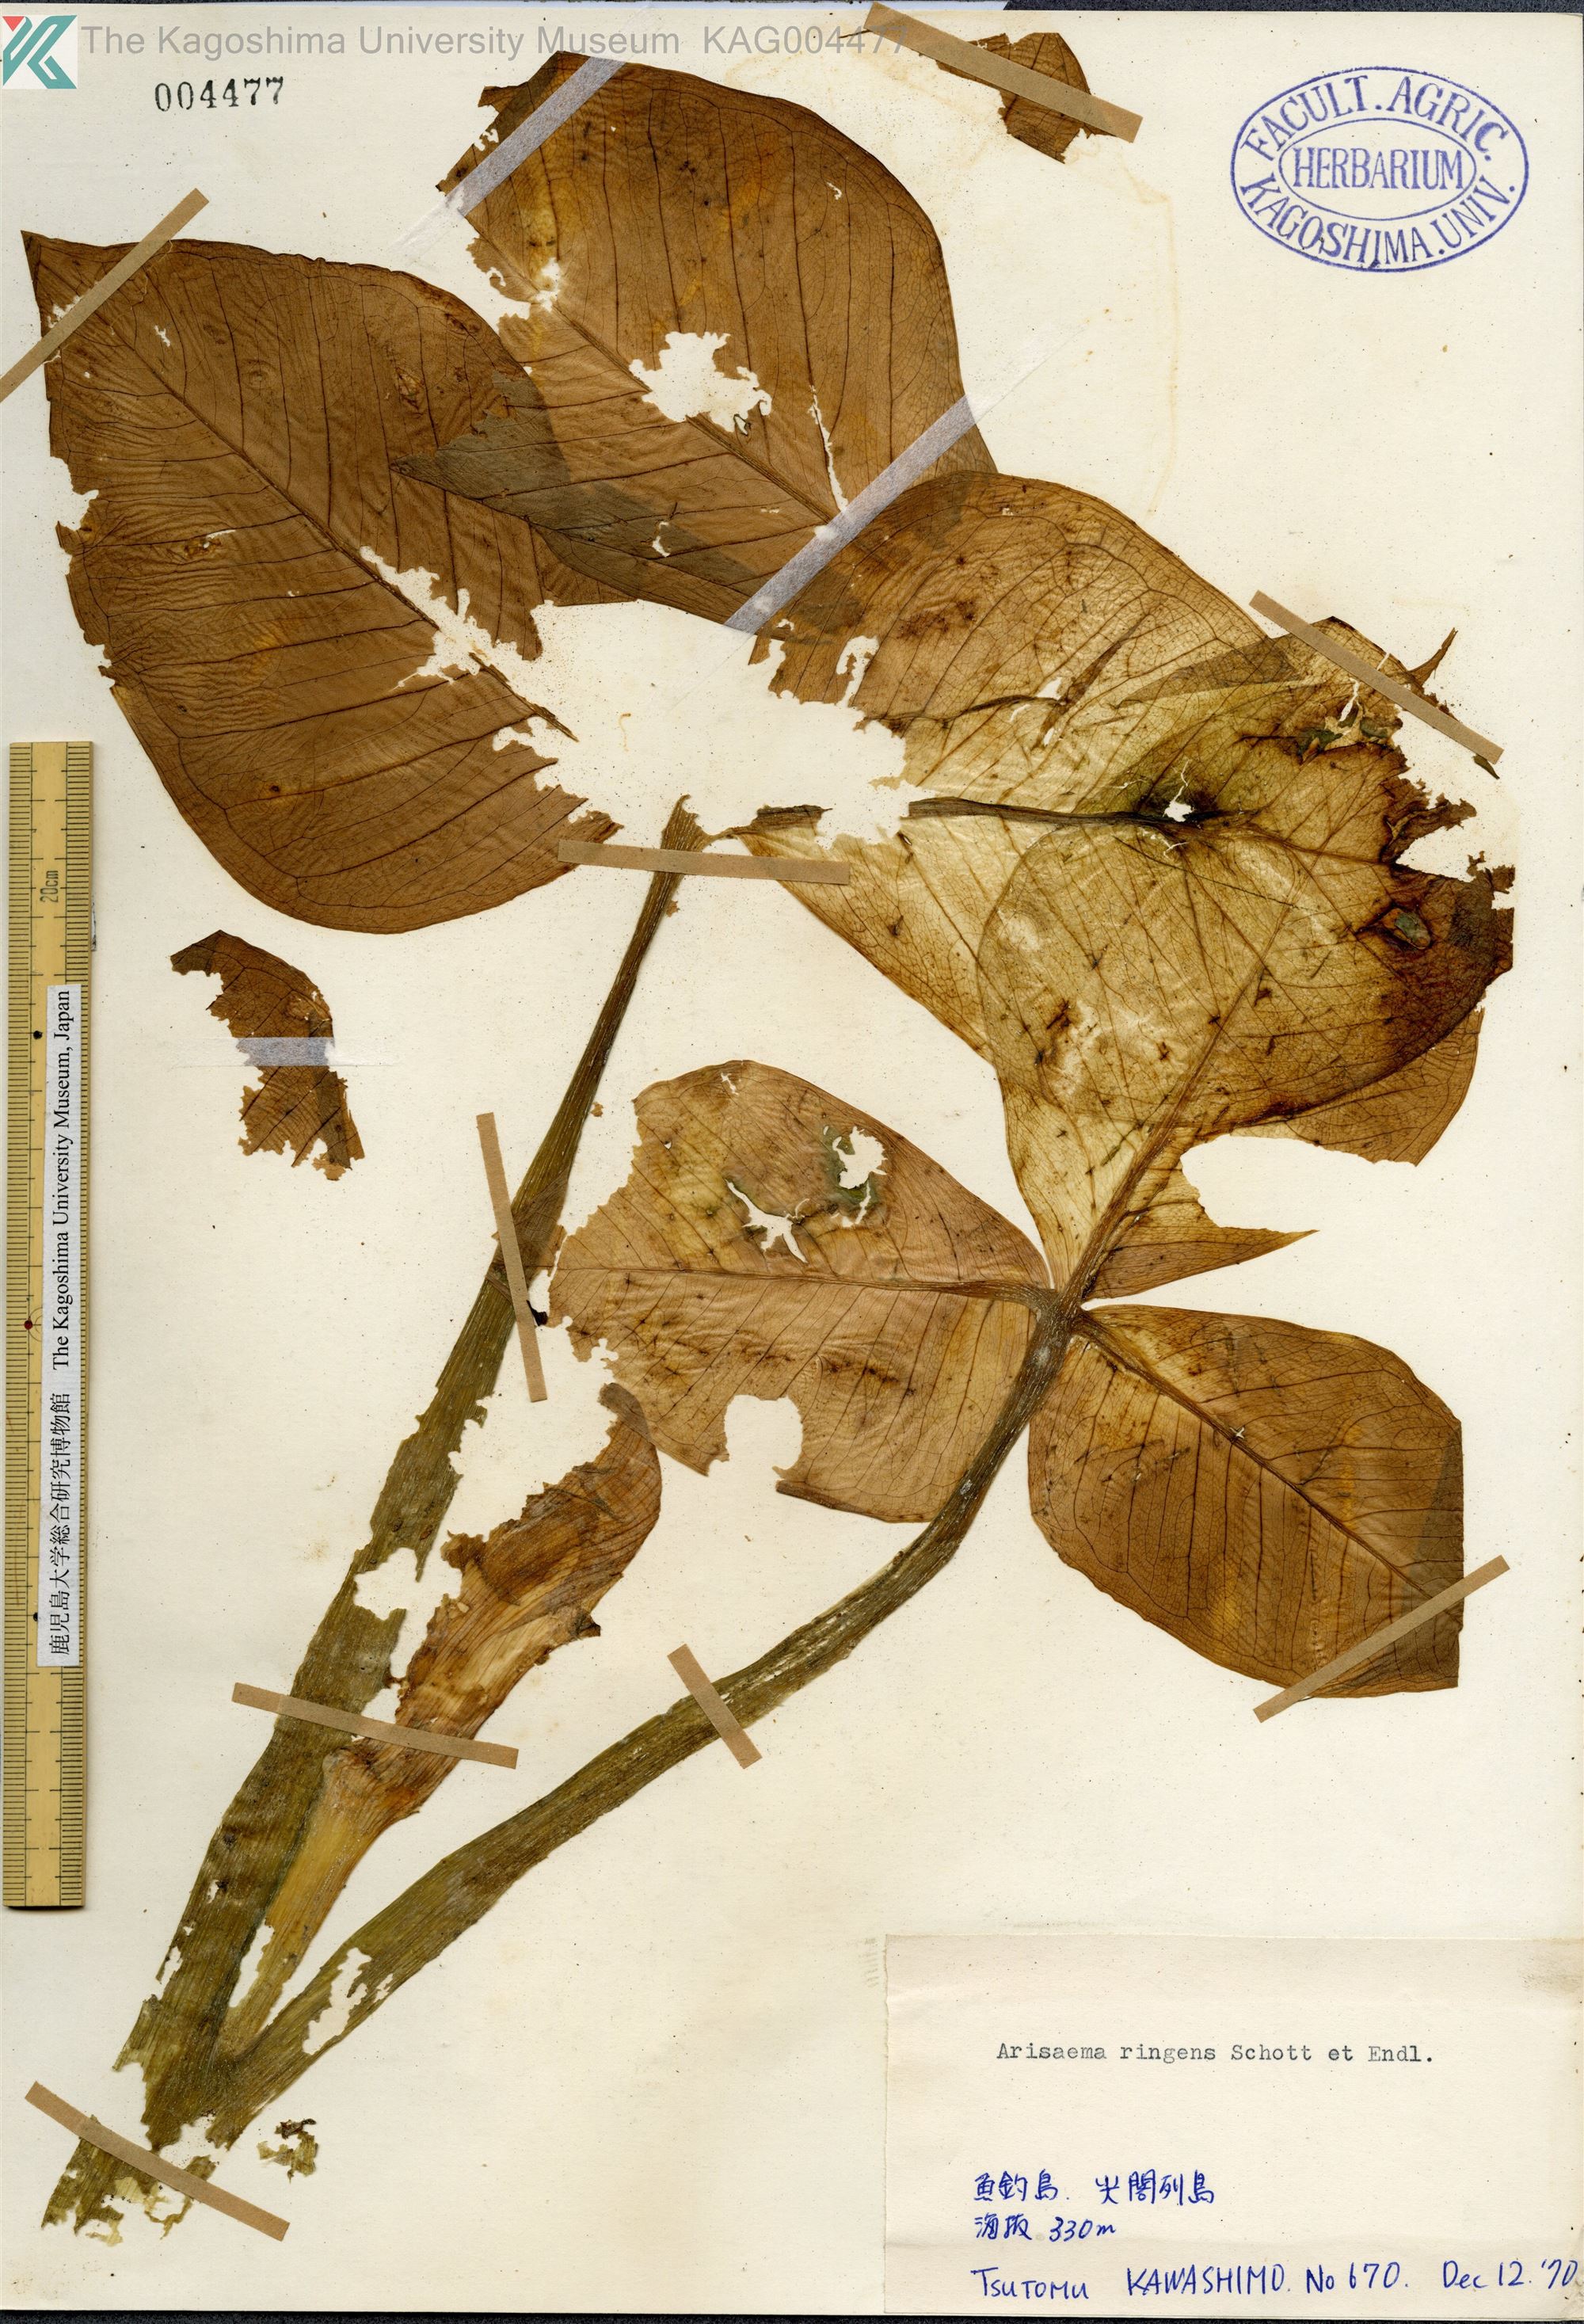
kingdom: Plantae
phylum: Tracheophyta
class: Liliopsida
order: Alismatales
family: Araceae
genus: Arisaema
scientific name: Arisaema ringens
